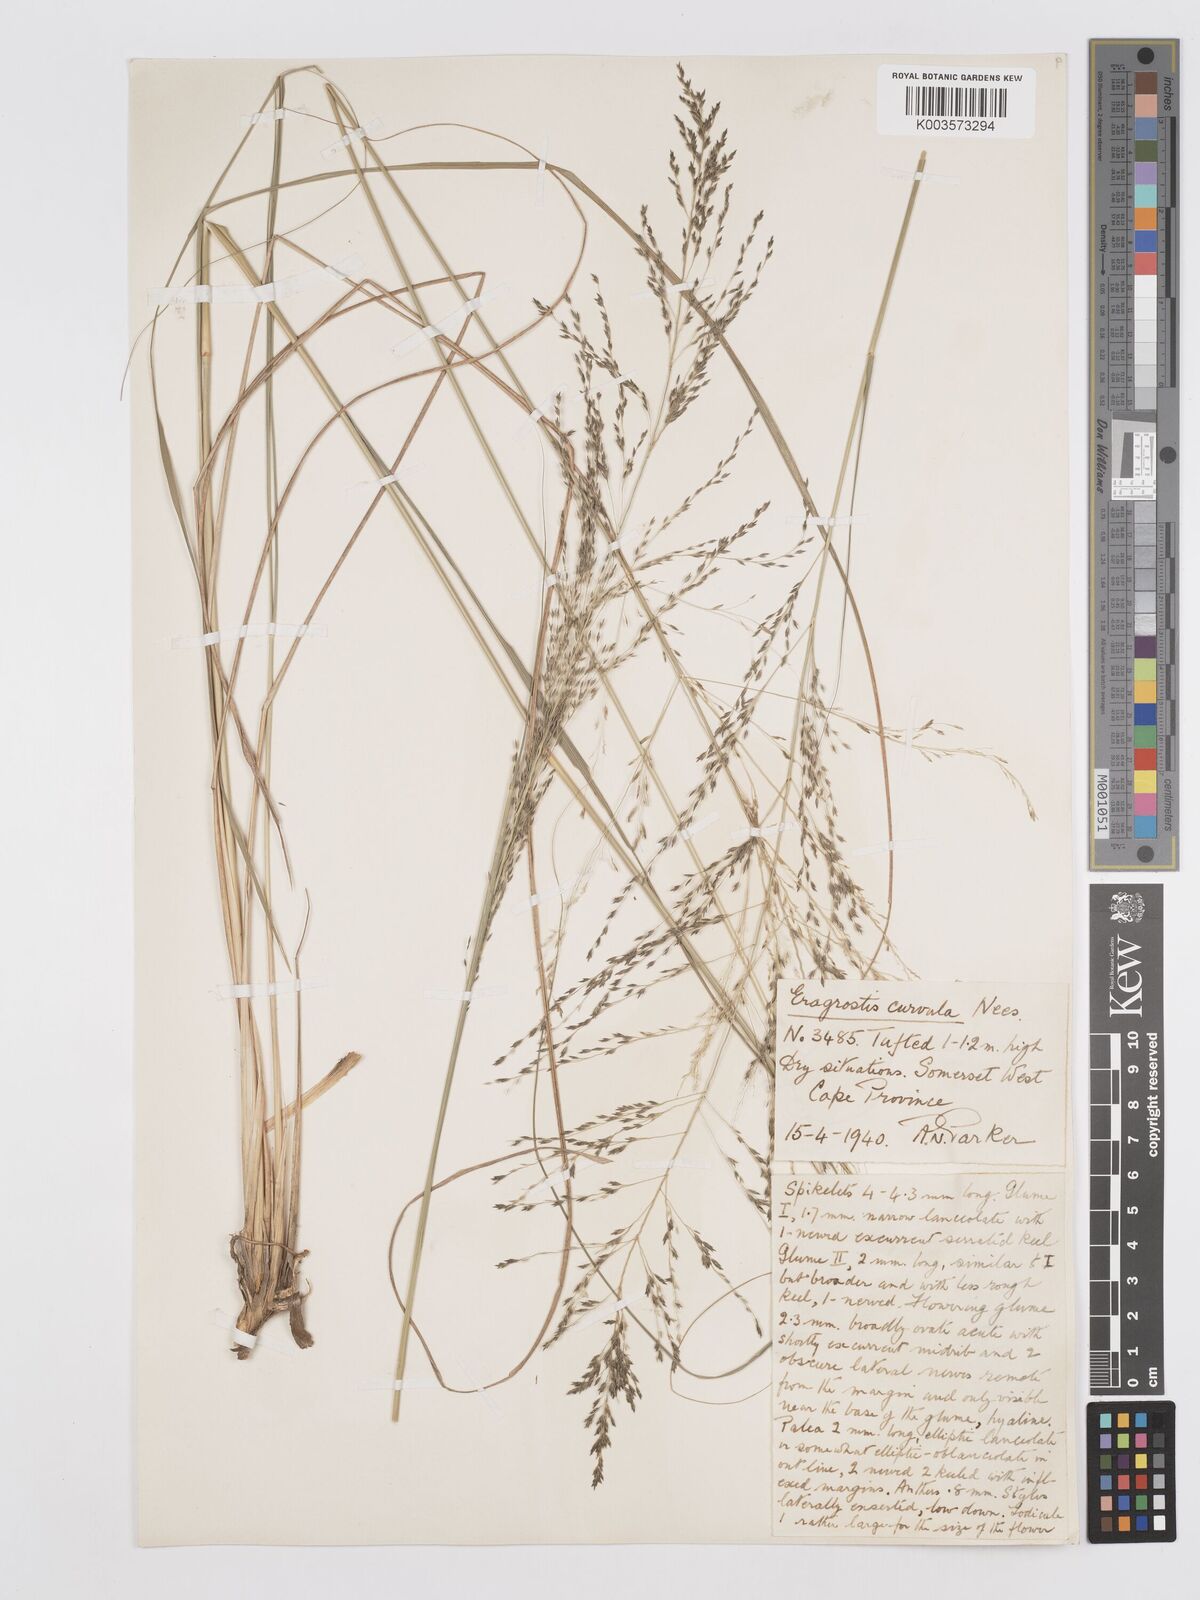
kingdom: Plantae
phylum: Tracheophyta
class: Liliopsida
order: Poales
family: Poaceae
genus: Eragrostis
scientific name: Eragrostis curvula
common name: African love-grass
